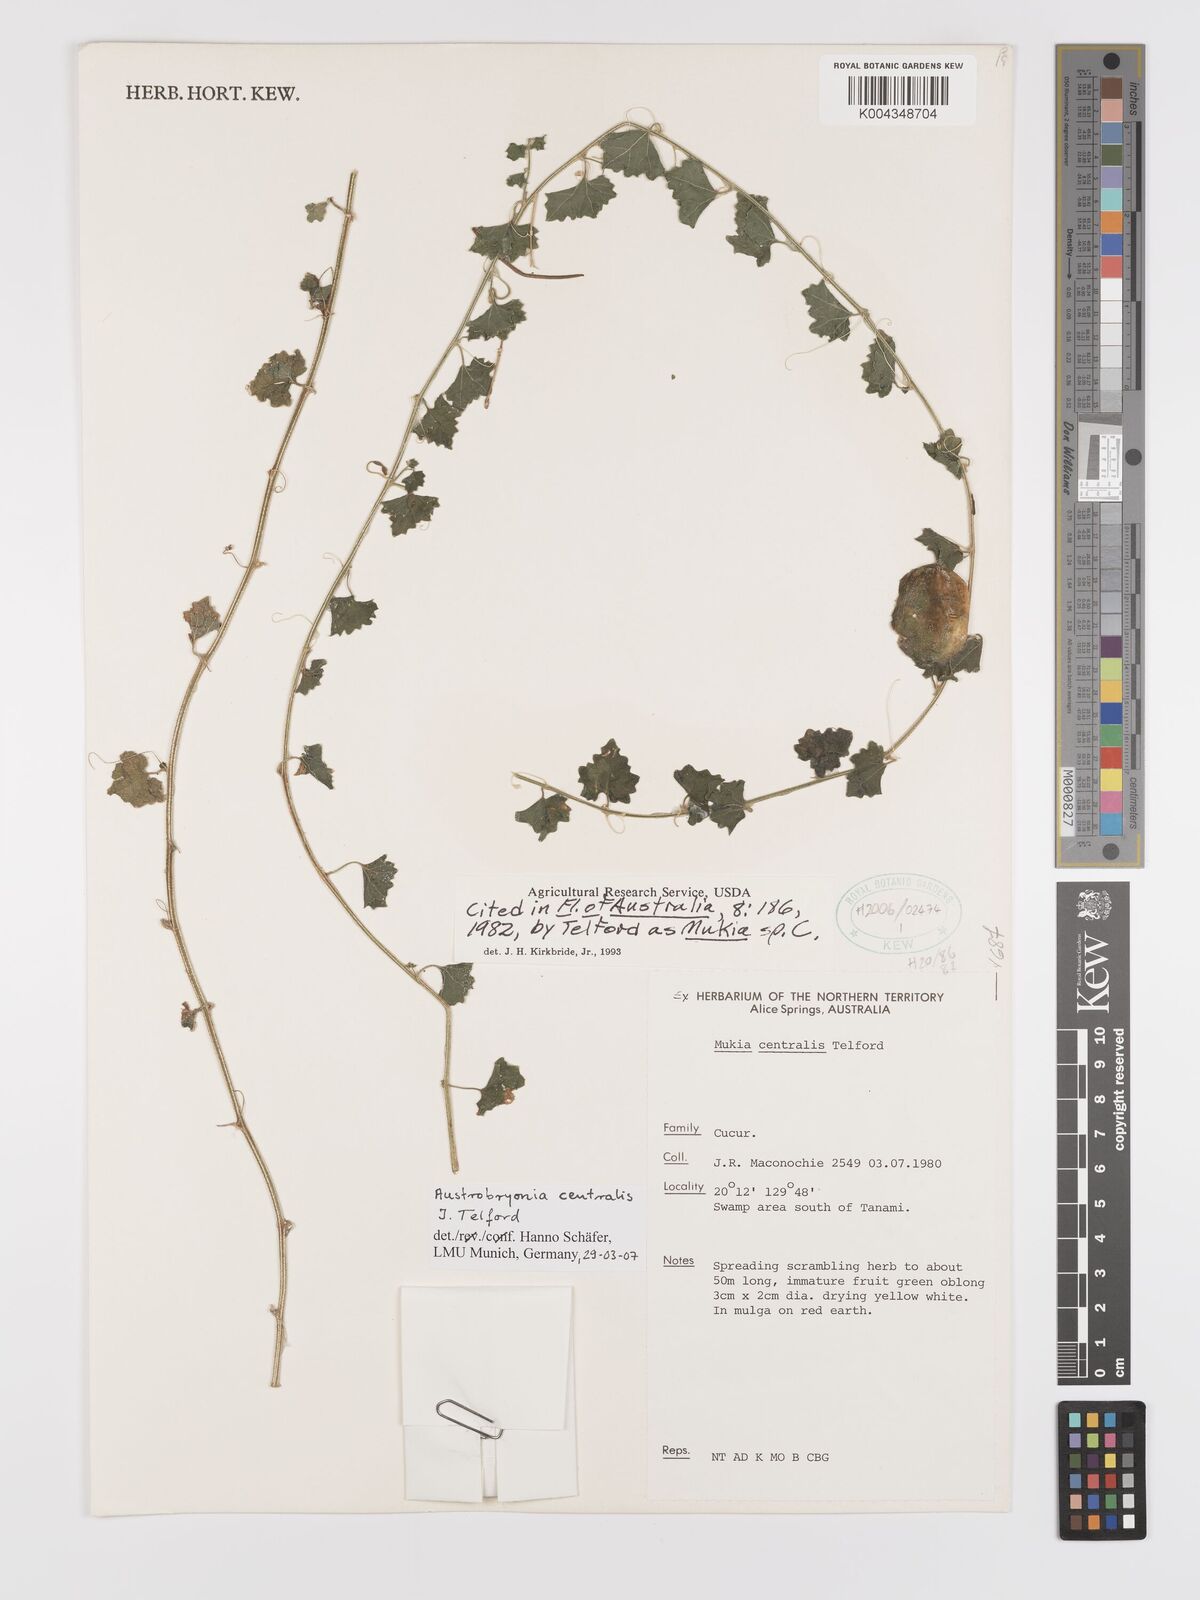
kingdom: Plantae
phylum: Tracheophyta
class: Magnoliopsida
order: Cucurbitales
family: Cucurbitaceae
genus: Austrobryonia
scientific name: Austrobryonia centralis
